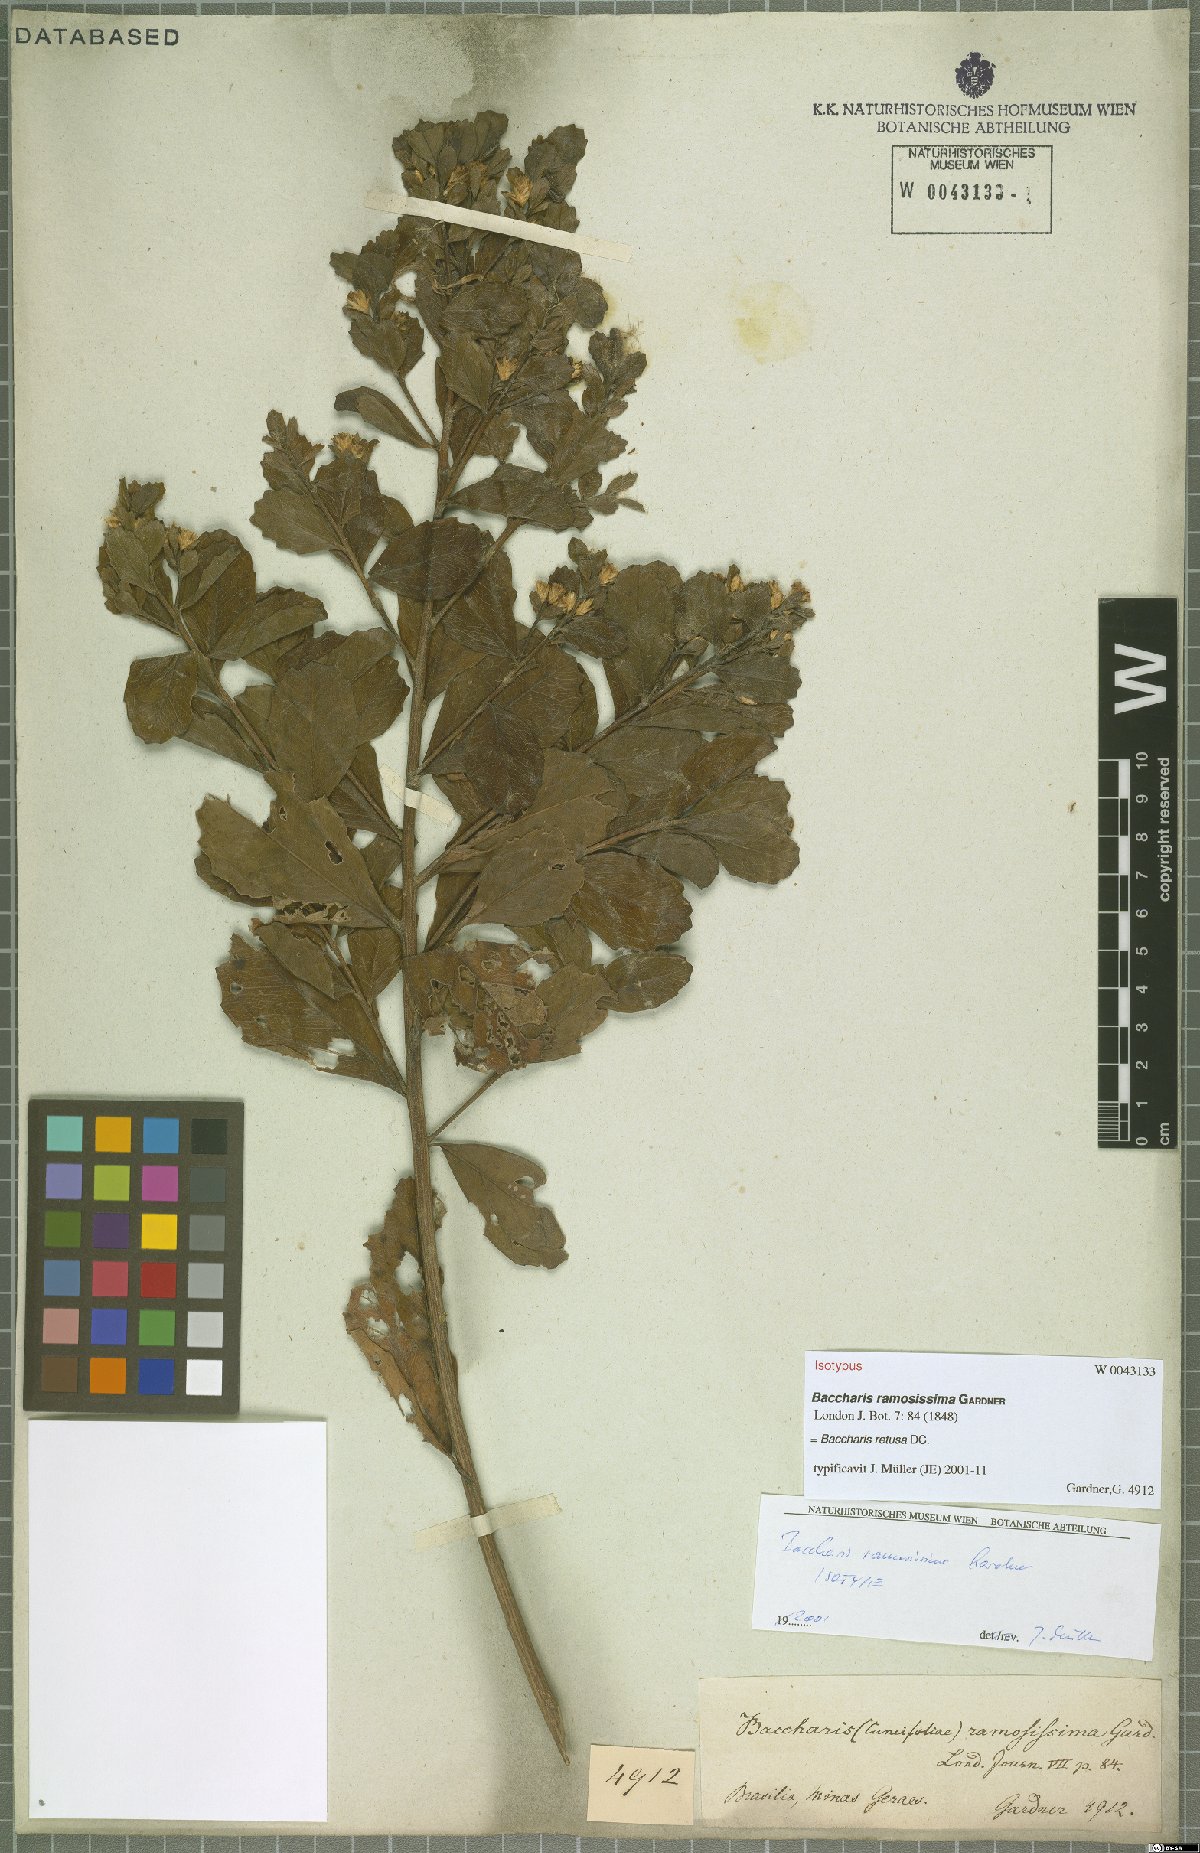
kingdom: Plantae
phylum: Tracheophyta
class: Magnoliopsida
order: Asterales
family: Asteraceae
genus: Baccharis
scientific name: Baccharis retusa
